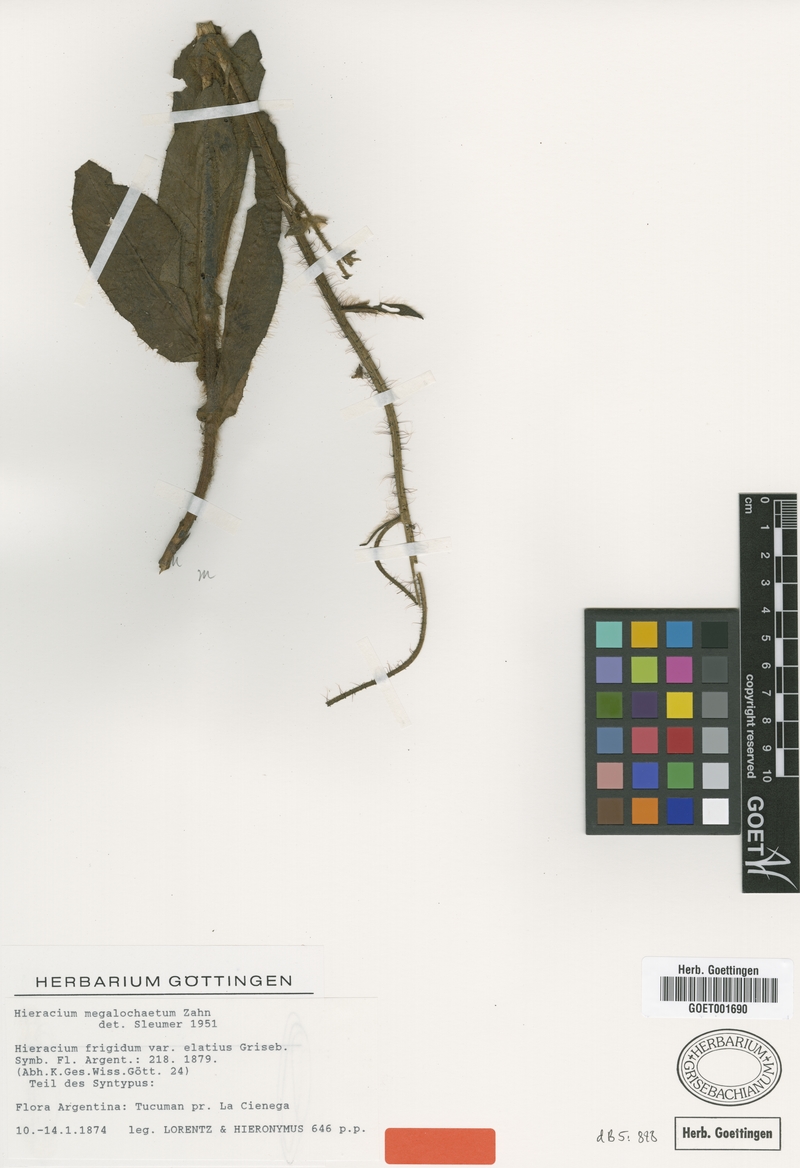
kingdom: Plantae
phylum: Tracheophyta
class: Magnoliopsida
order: Asterales
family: Asteraceae
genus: Hieracium
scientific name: Hieracium megalochaetum
